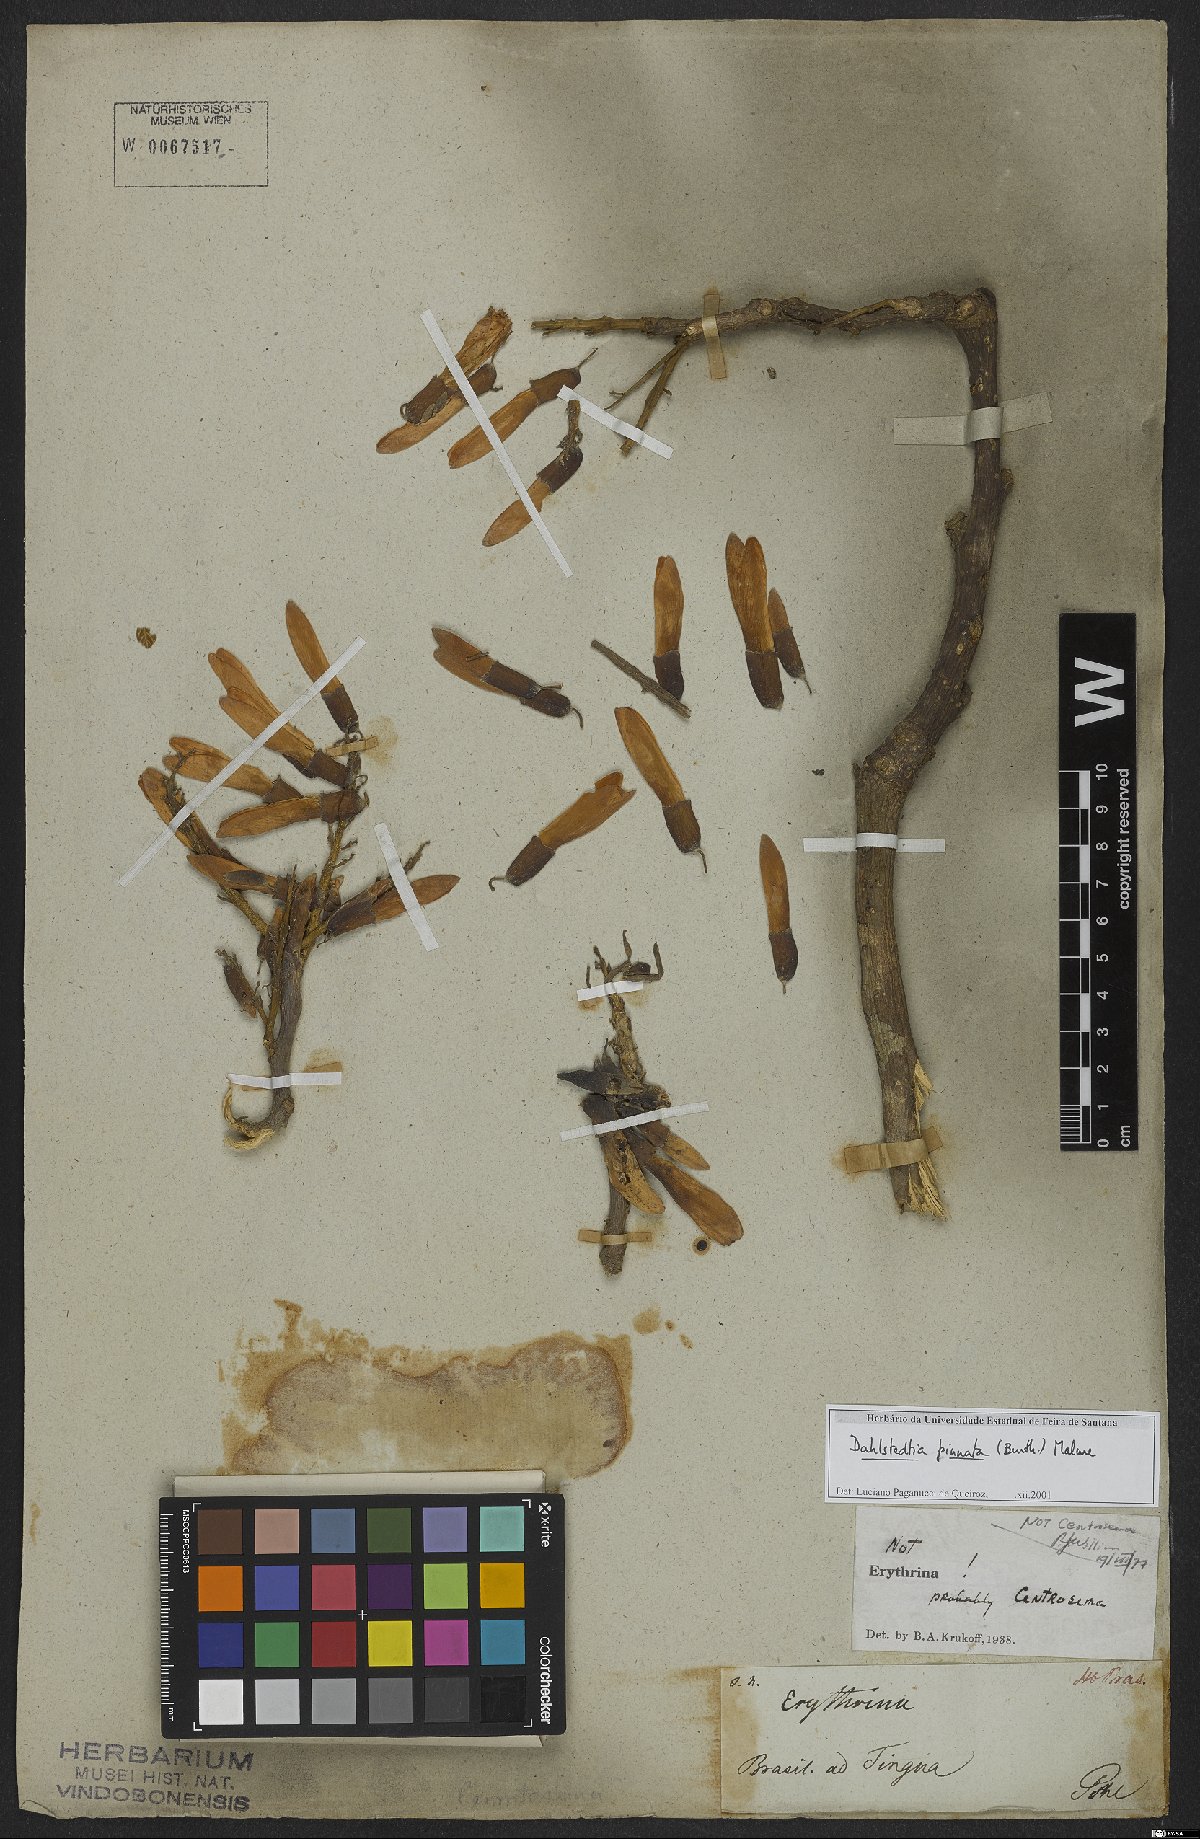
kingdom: Plantae
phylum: Tracheophyta
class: Magnoliopsida
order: Fabales
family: Fabaceae
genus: Dahlstedtia
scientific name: Dahlstedtia pinnata
